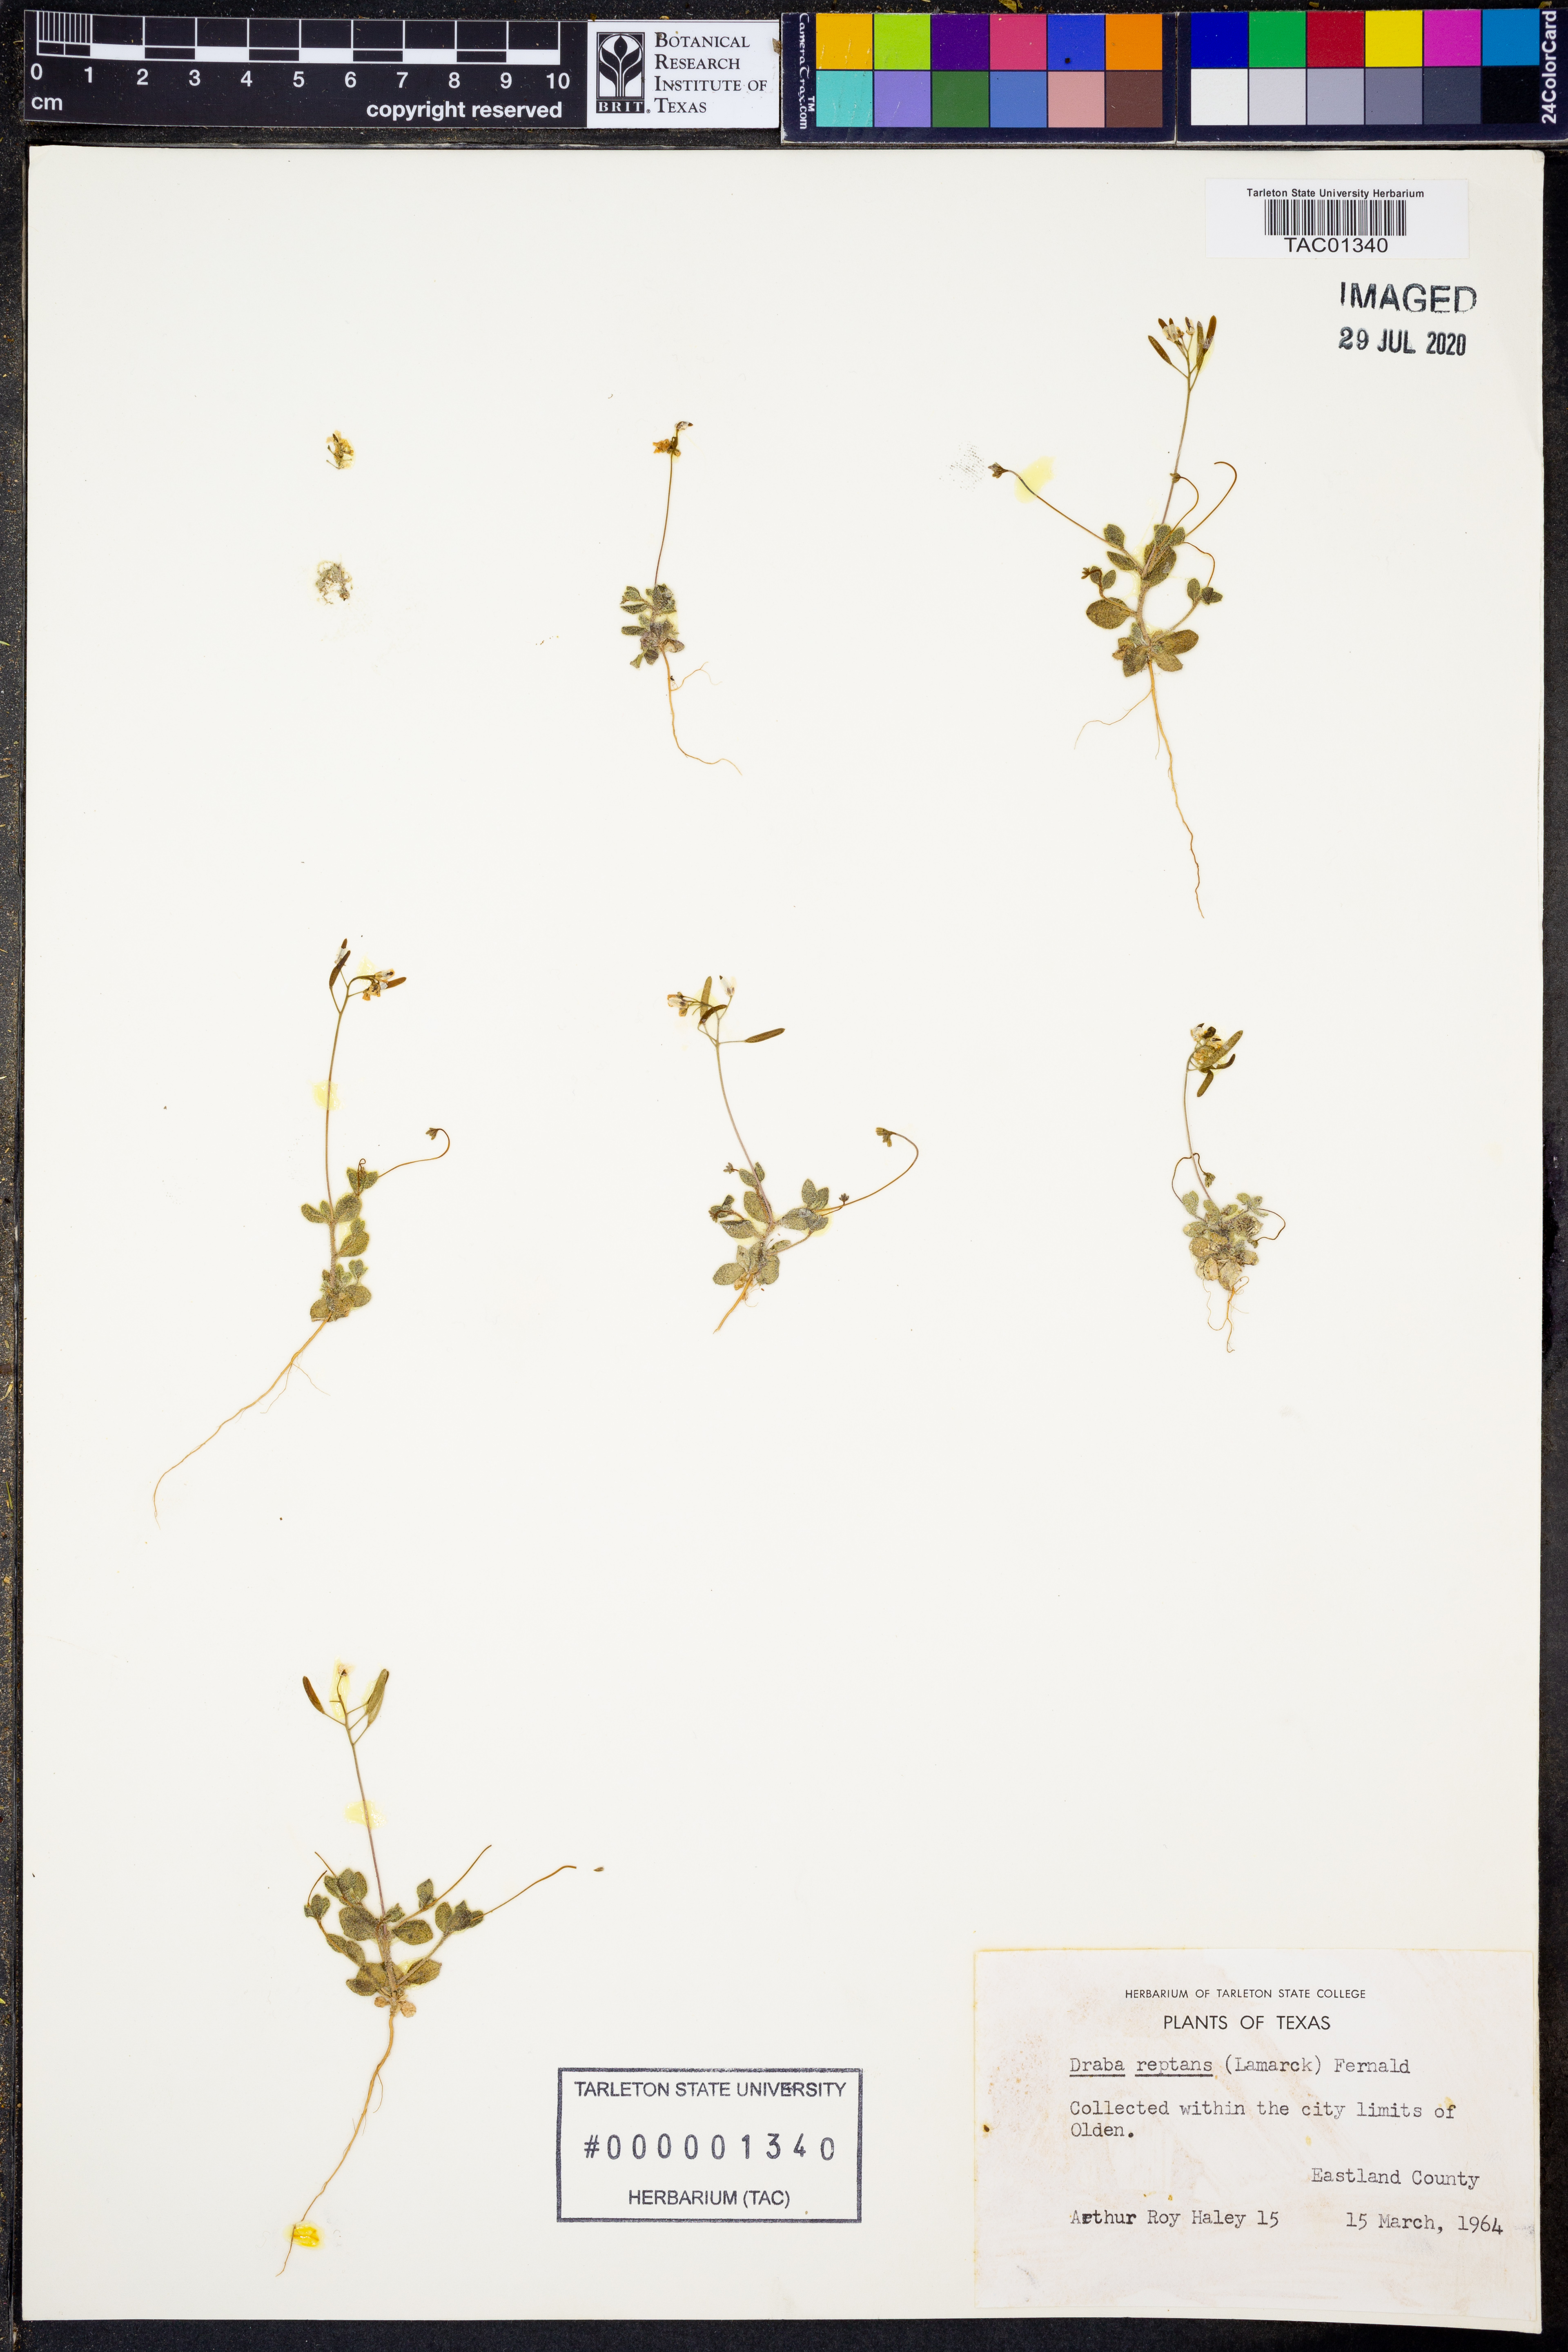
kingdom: Plantae
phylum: Tracheophyta
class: Magnoliopsida
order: Brassicales
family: Brassicaceae
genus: Tomostima
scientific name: Tomostima reptans
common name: Carolina draba
